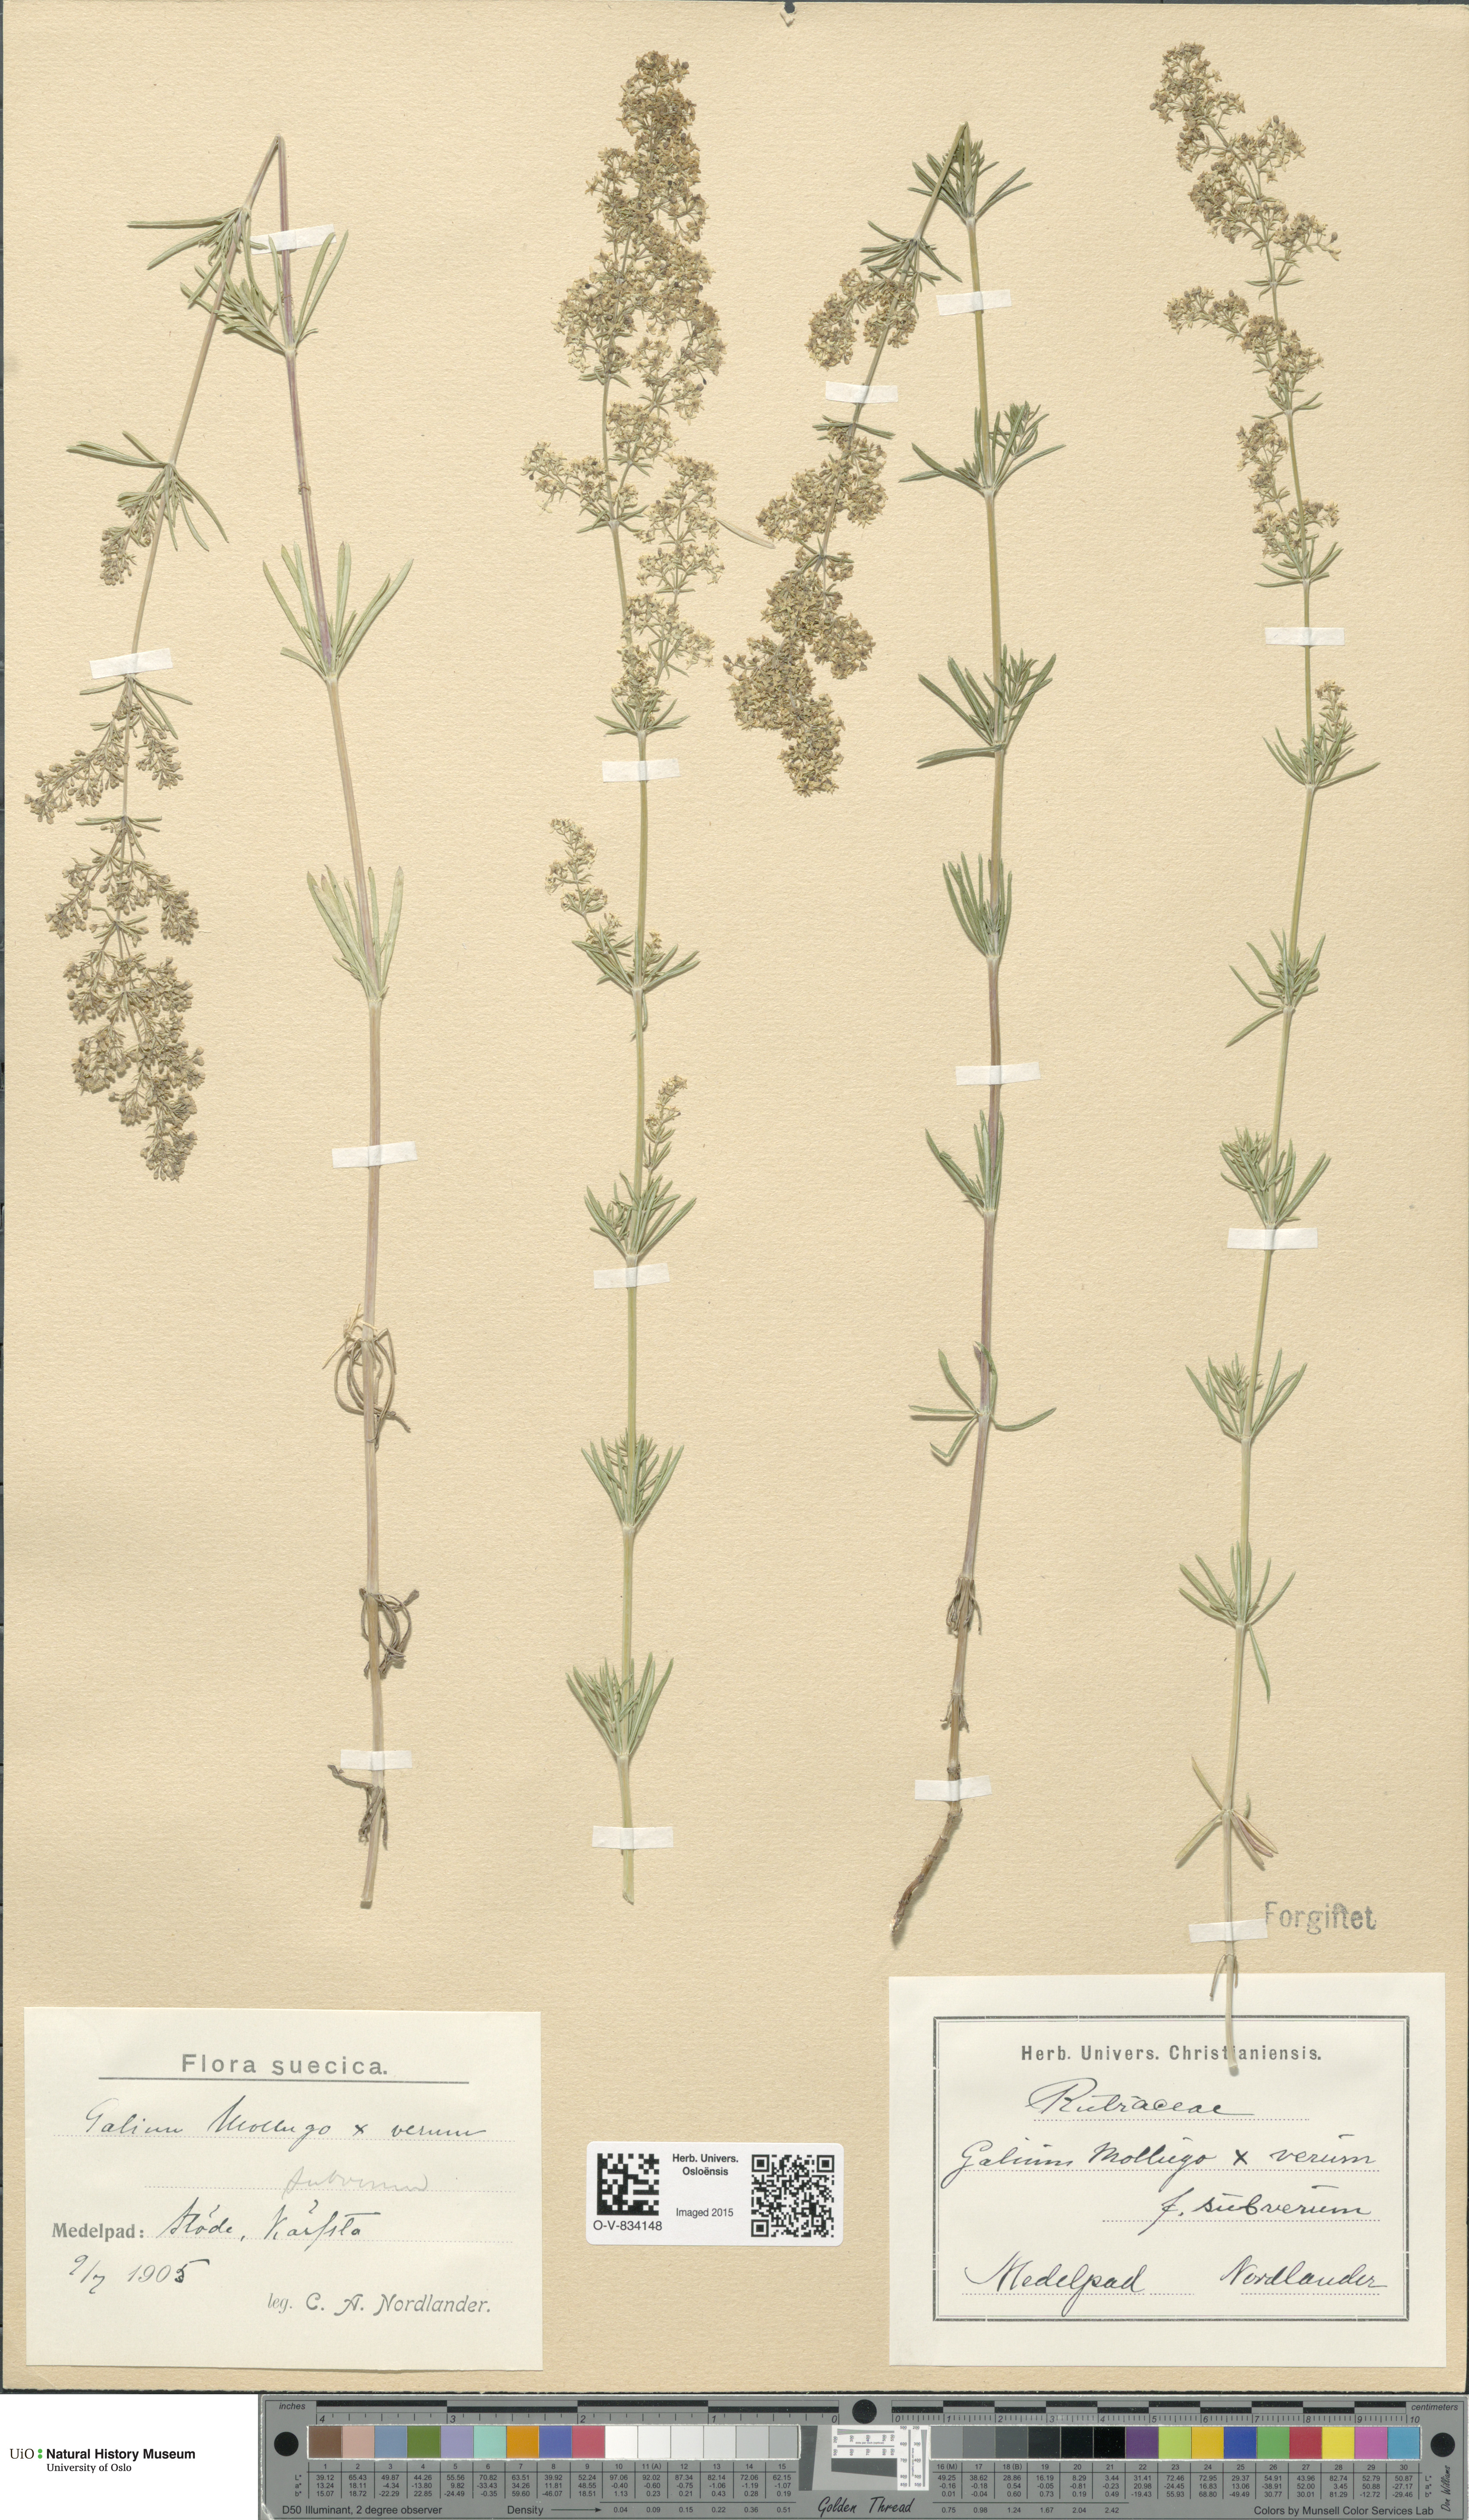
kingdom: Plantae
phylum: Tracheophyta
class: Magnoliopsida
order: Gentianales
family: Rubiaceae
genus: Galium
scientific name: Galium
